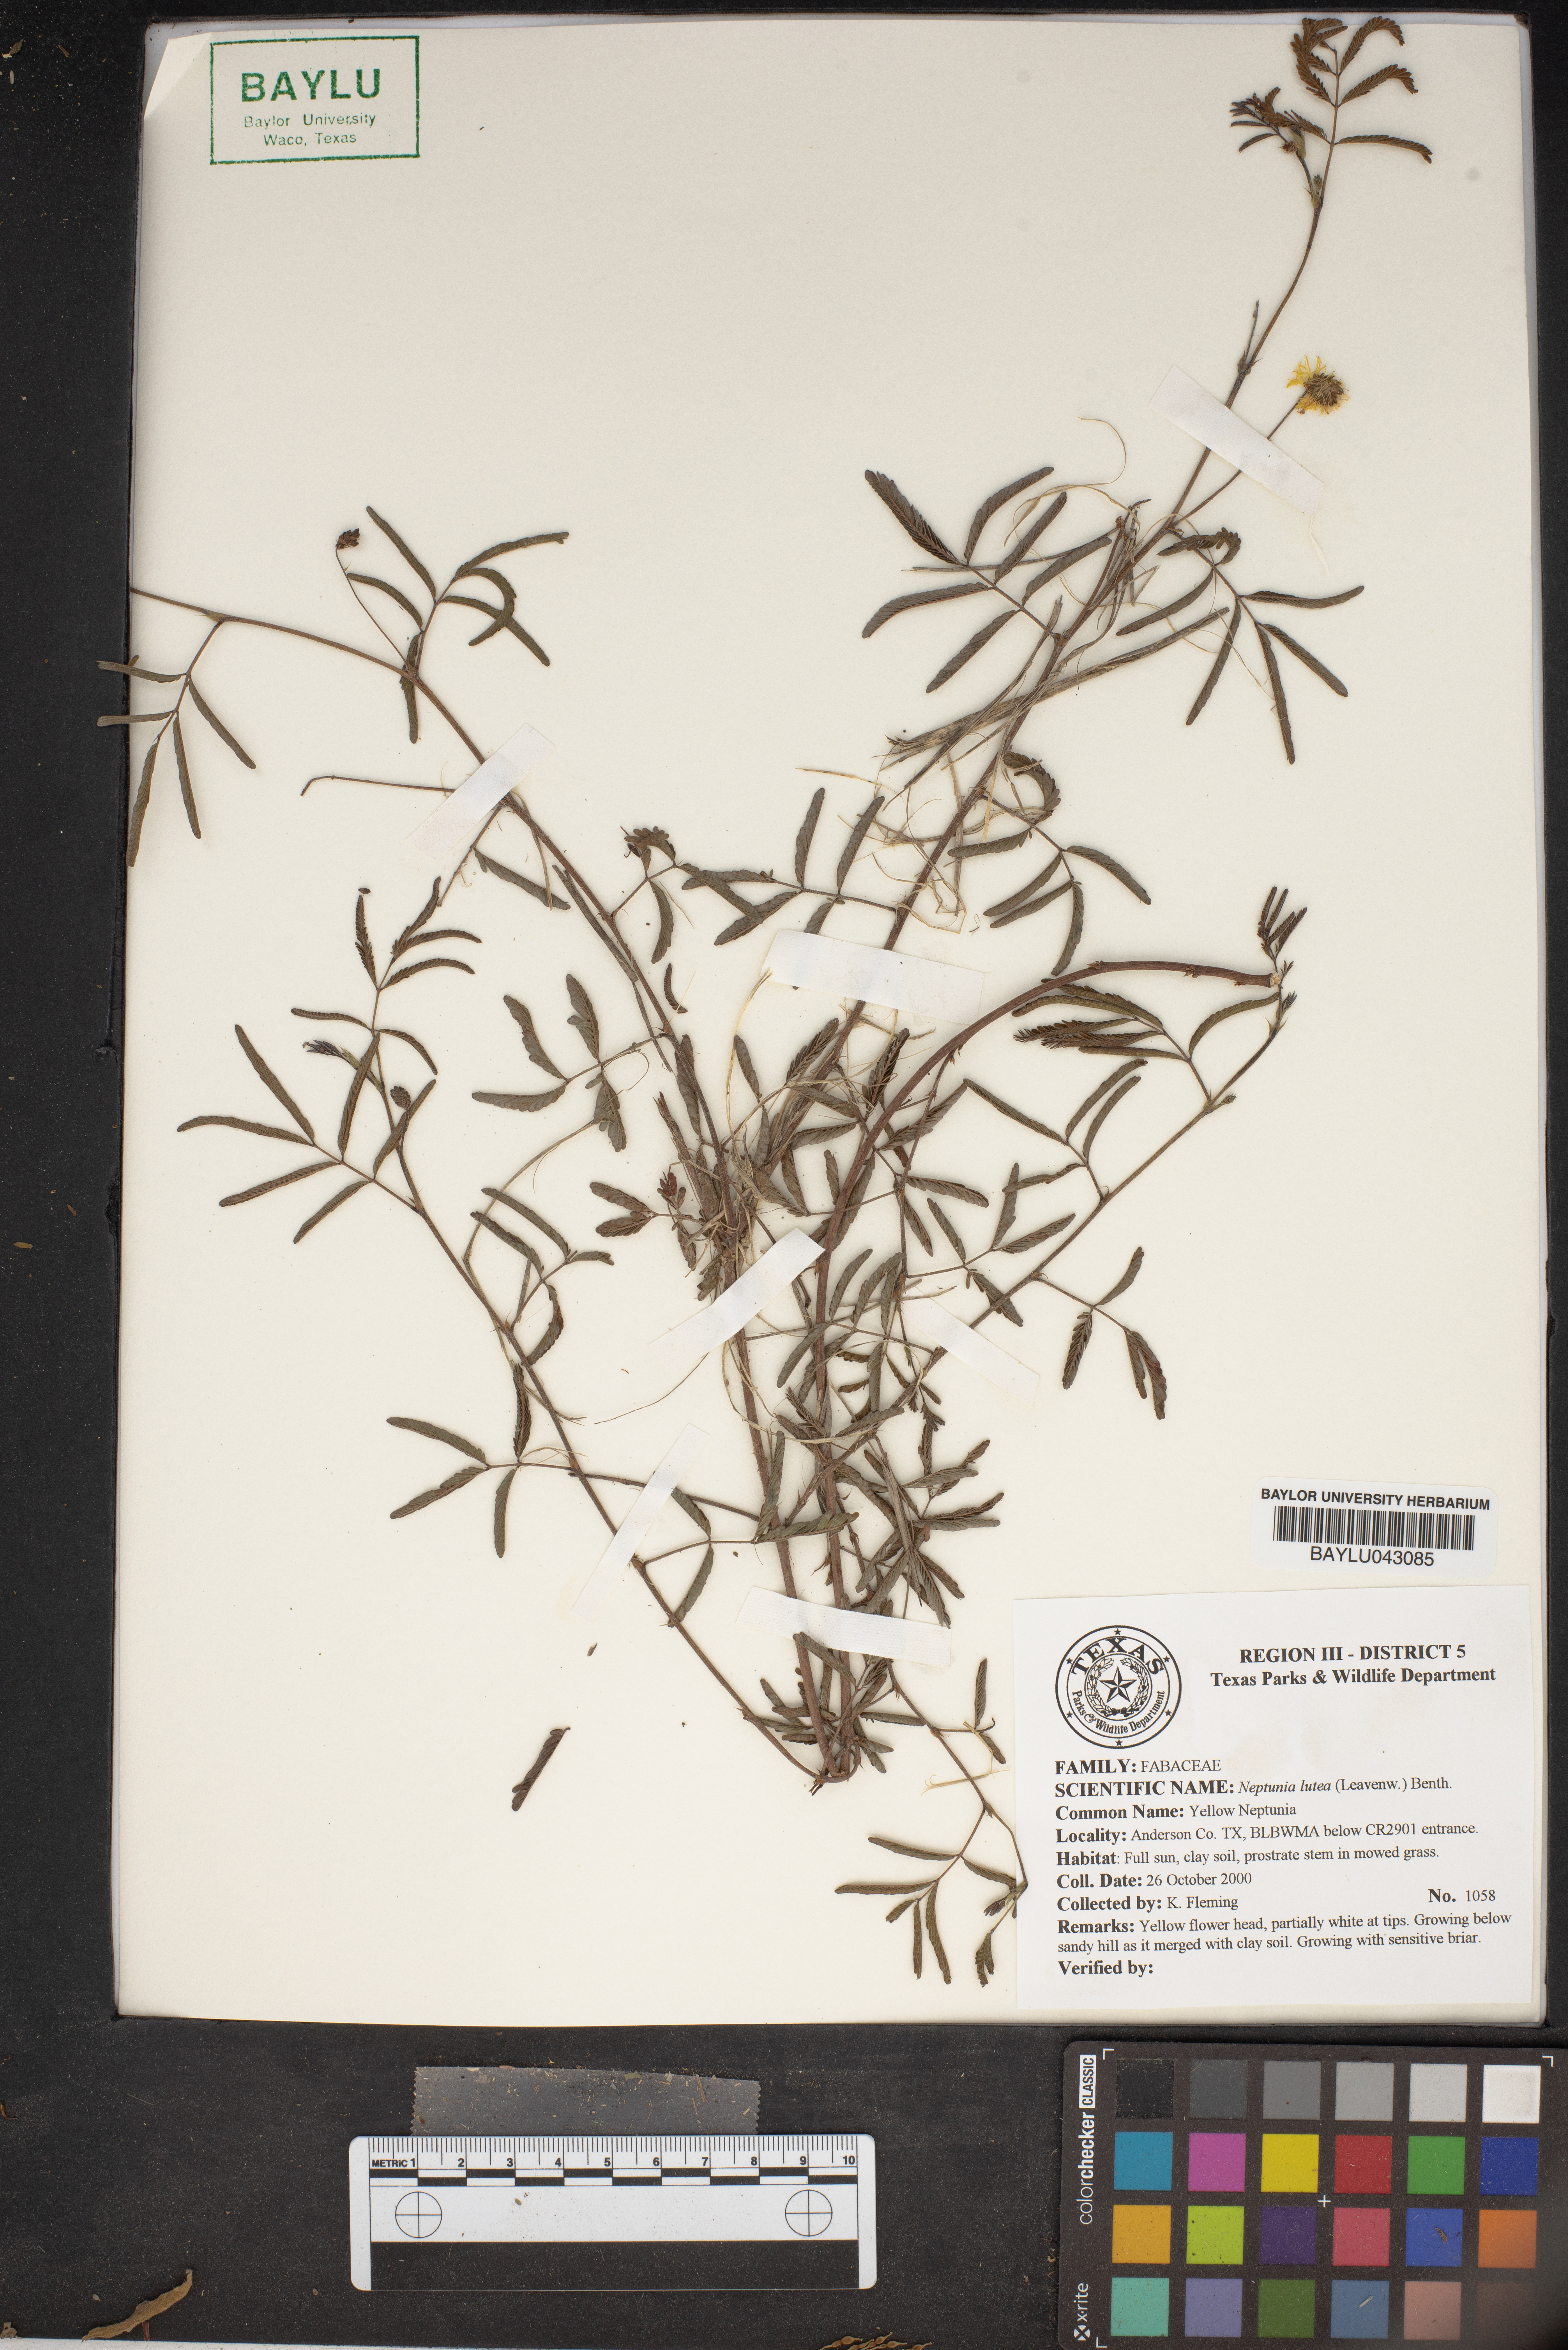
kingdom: Plantae
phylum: Tracheophyta
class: Magnoliopsida
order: Fabales
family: Fabaceae
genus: Neptunia
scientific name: Neptunia lutea
